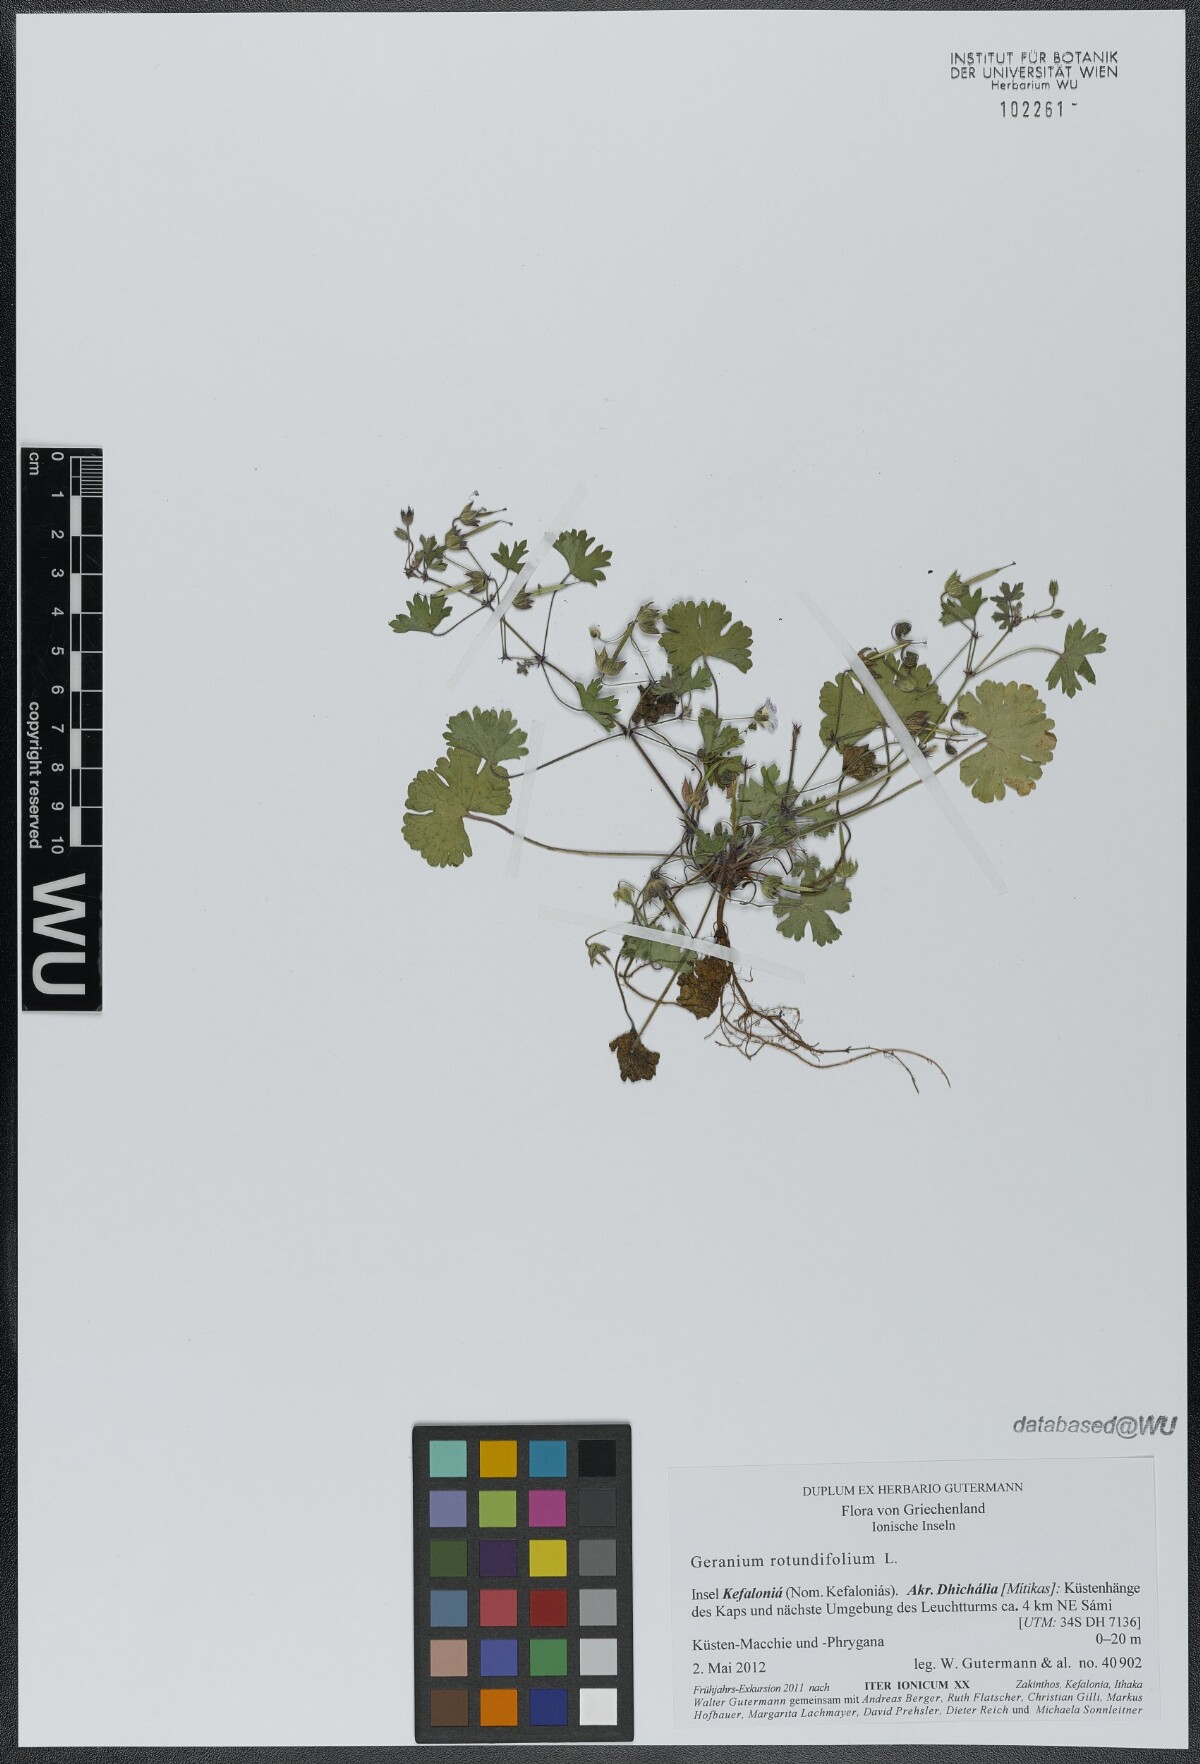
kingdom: Plantae
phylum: Tracheophyta
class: Magnoliopsida
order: Geraniales
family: Geraniaceae
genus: Geranium
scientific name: Geranium rotundifolium
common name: Round-leaved crane's-bill
